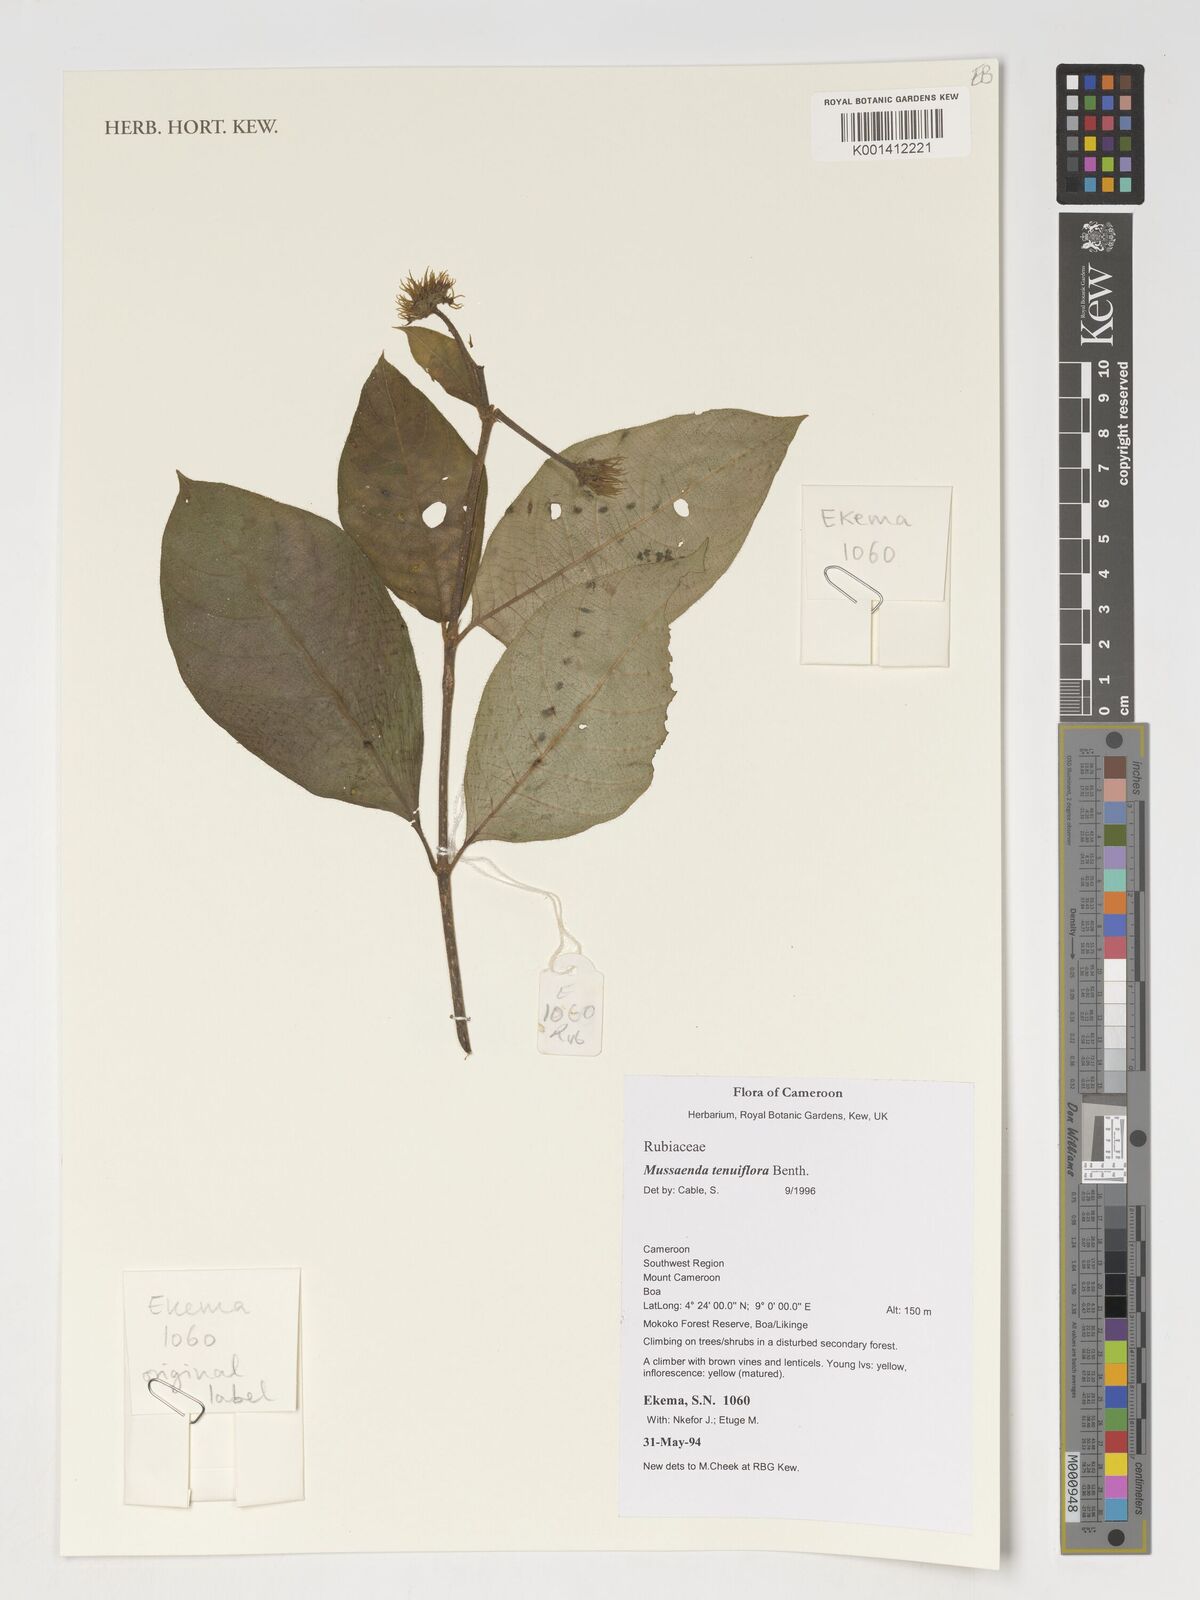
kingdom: Plantae
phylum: Tracheophyta
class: Magnoliopsida
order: Gentianales
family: Rubiaceae
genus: Mussaenda
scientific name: Mussaenda tenuiflora
